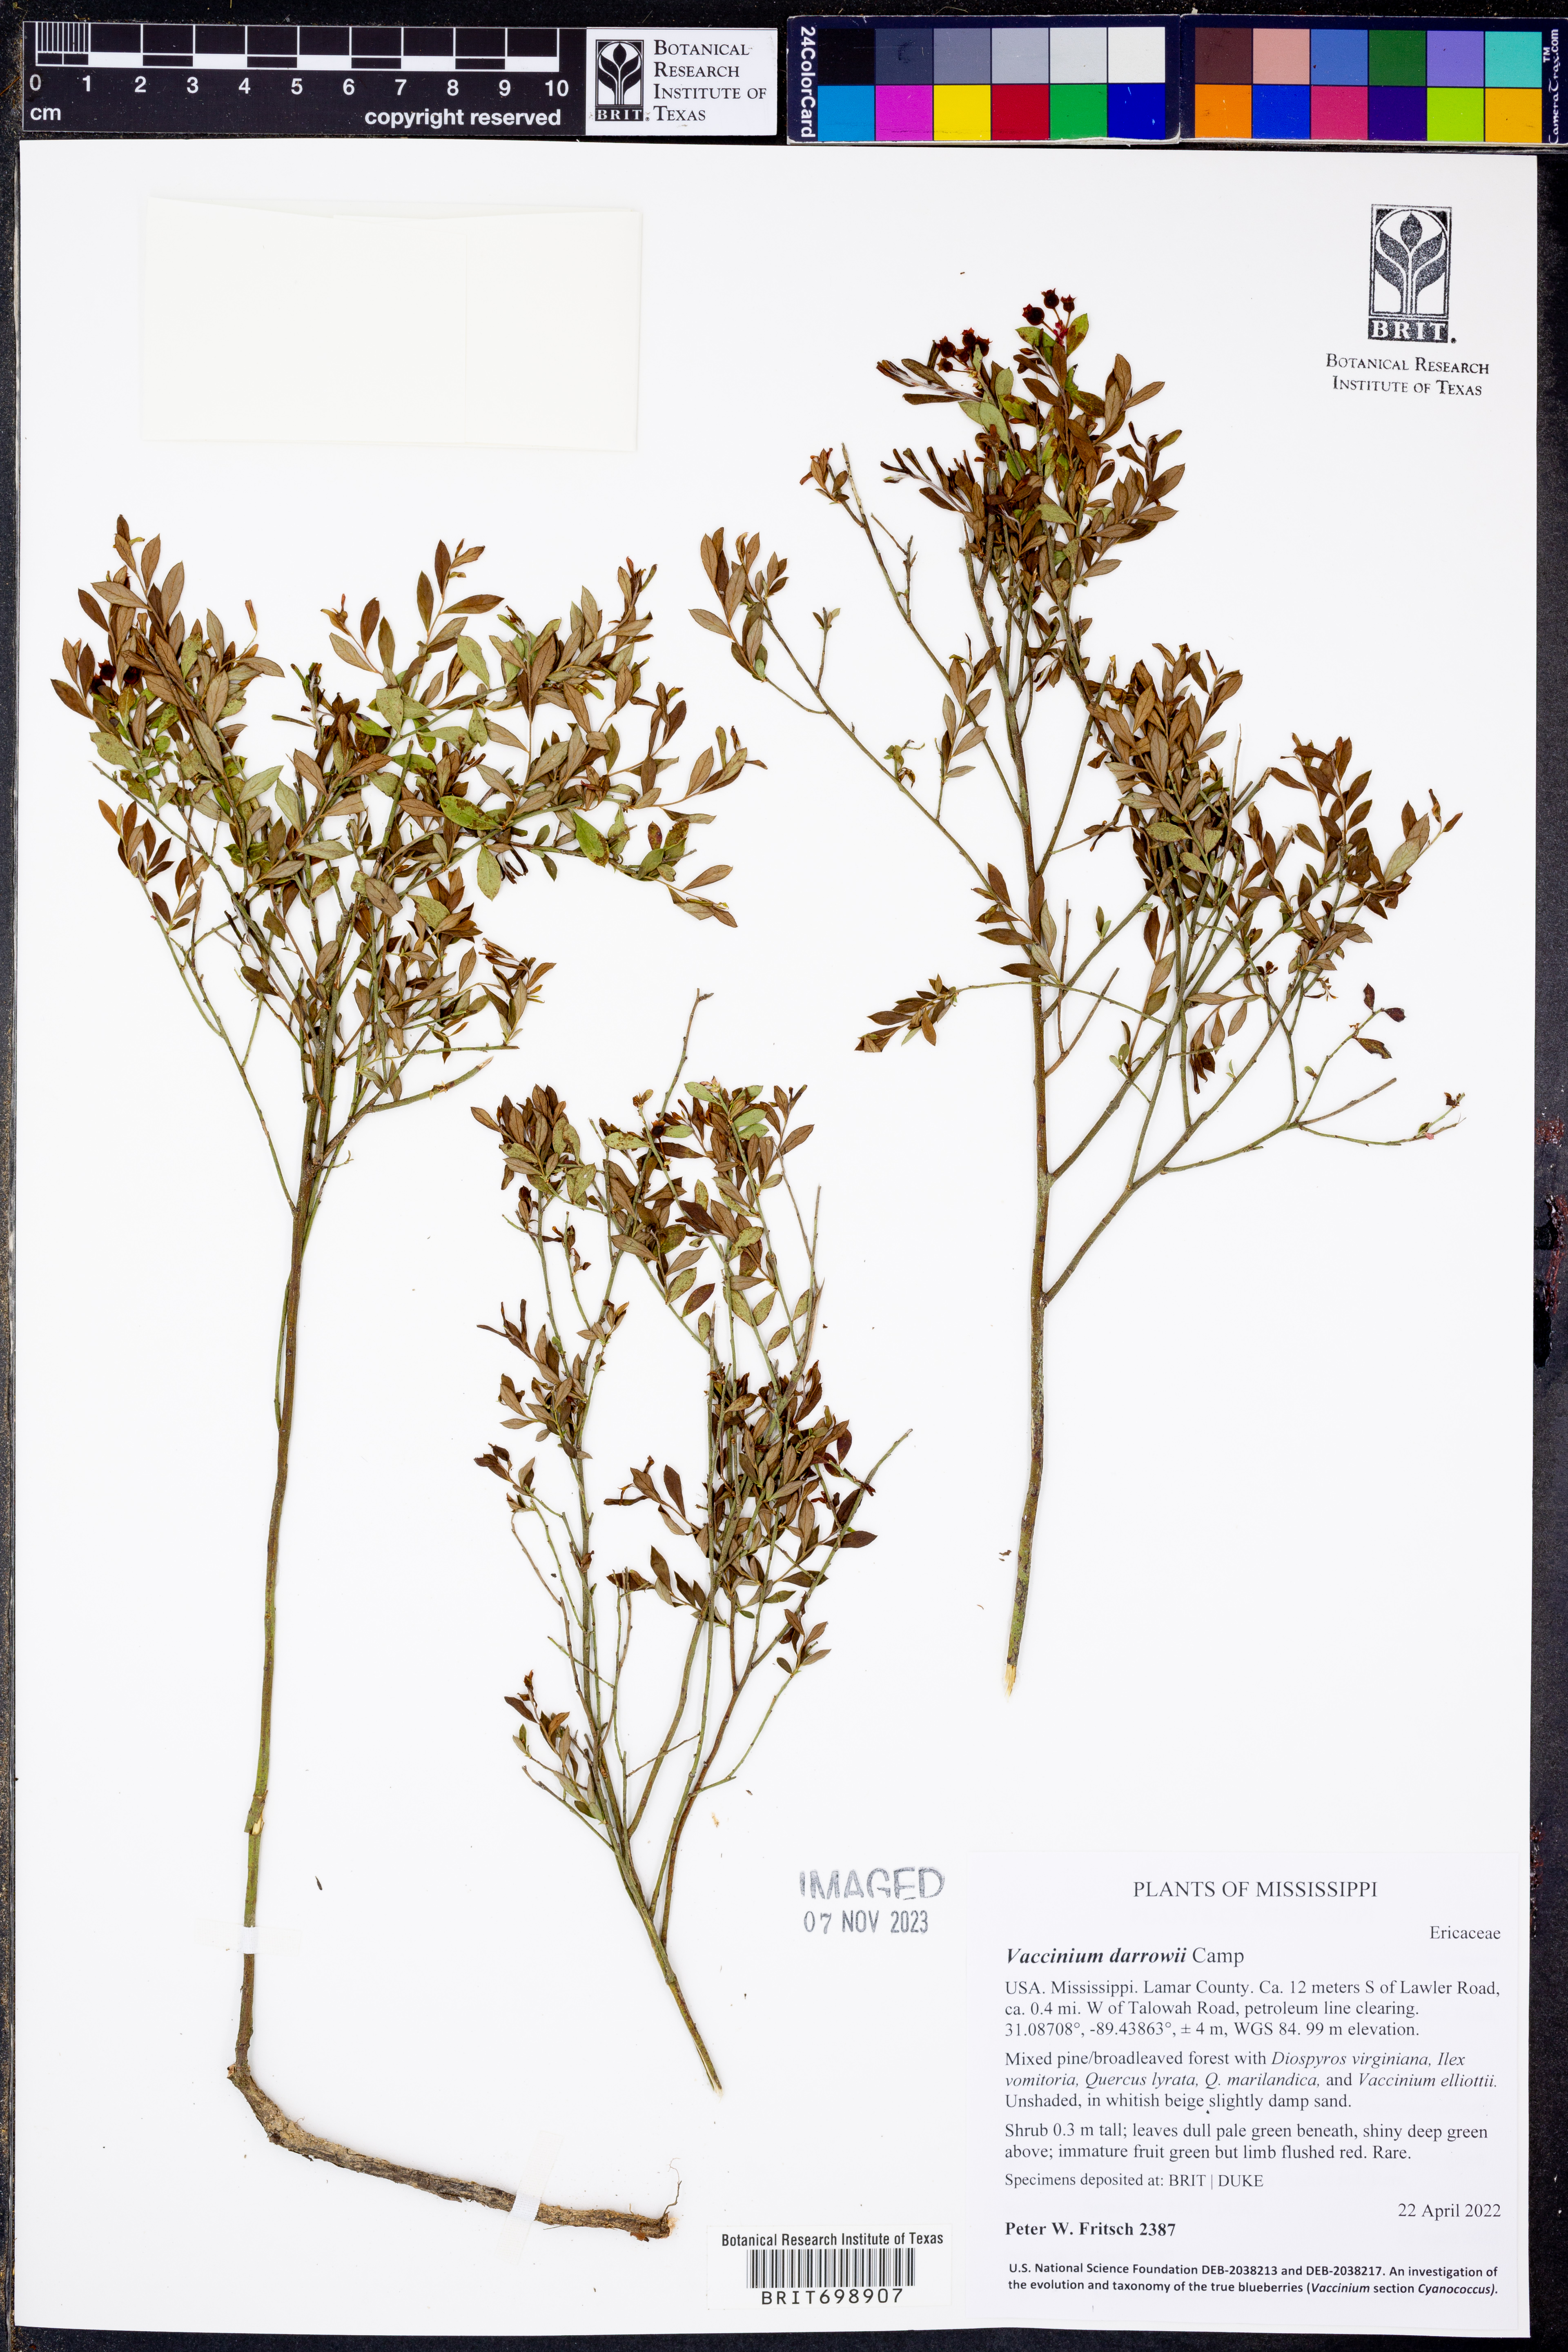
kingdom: Plantae
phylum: Tracheophyta
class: Magnoliopsida
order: Ericales
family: Ericaceae
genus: Vaccinium
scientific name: Vaccinium darrowii
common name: Darrow's blueberry
